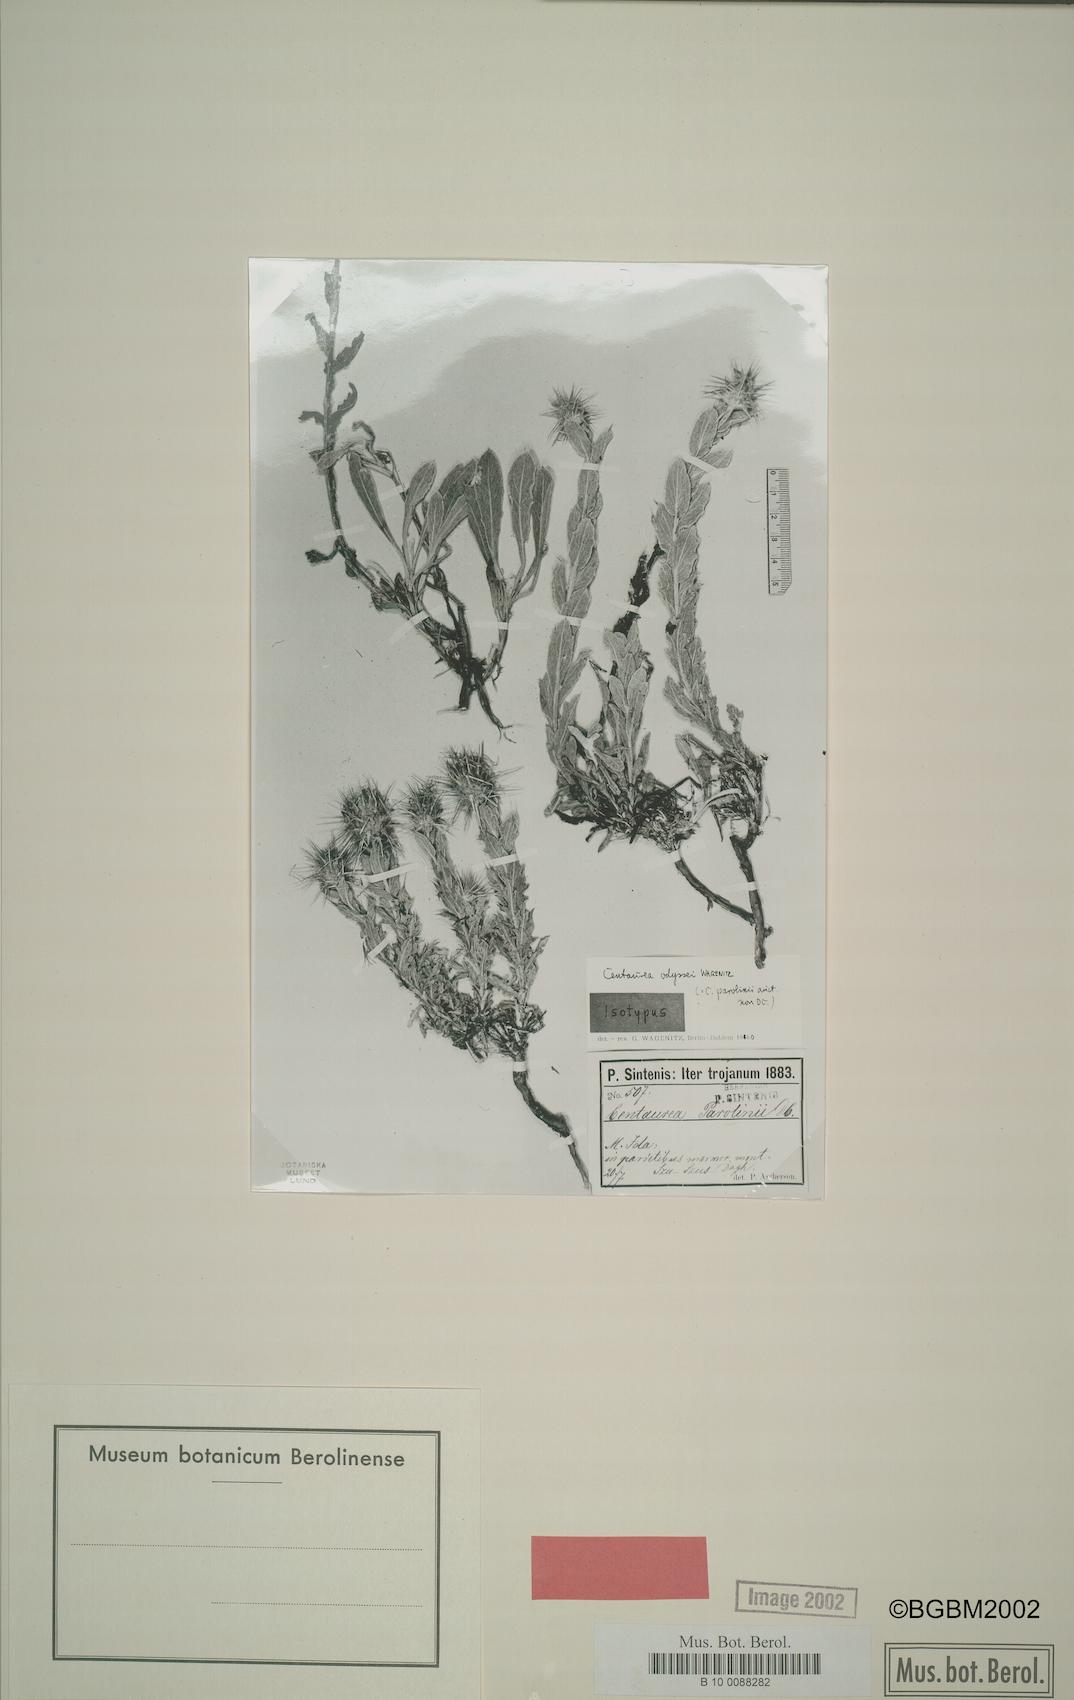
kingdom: Plantae
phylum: Tracheophyta
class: Magnoliopsida
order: Asterales
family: Asteraceae
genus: Centaurea
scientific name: Centaurea odyssei
